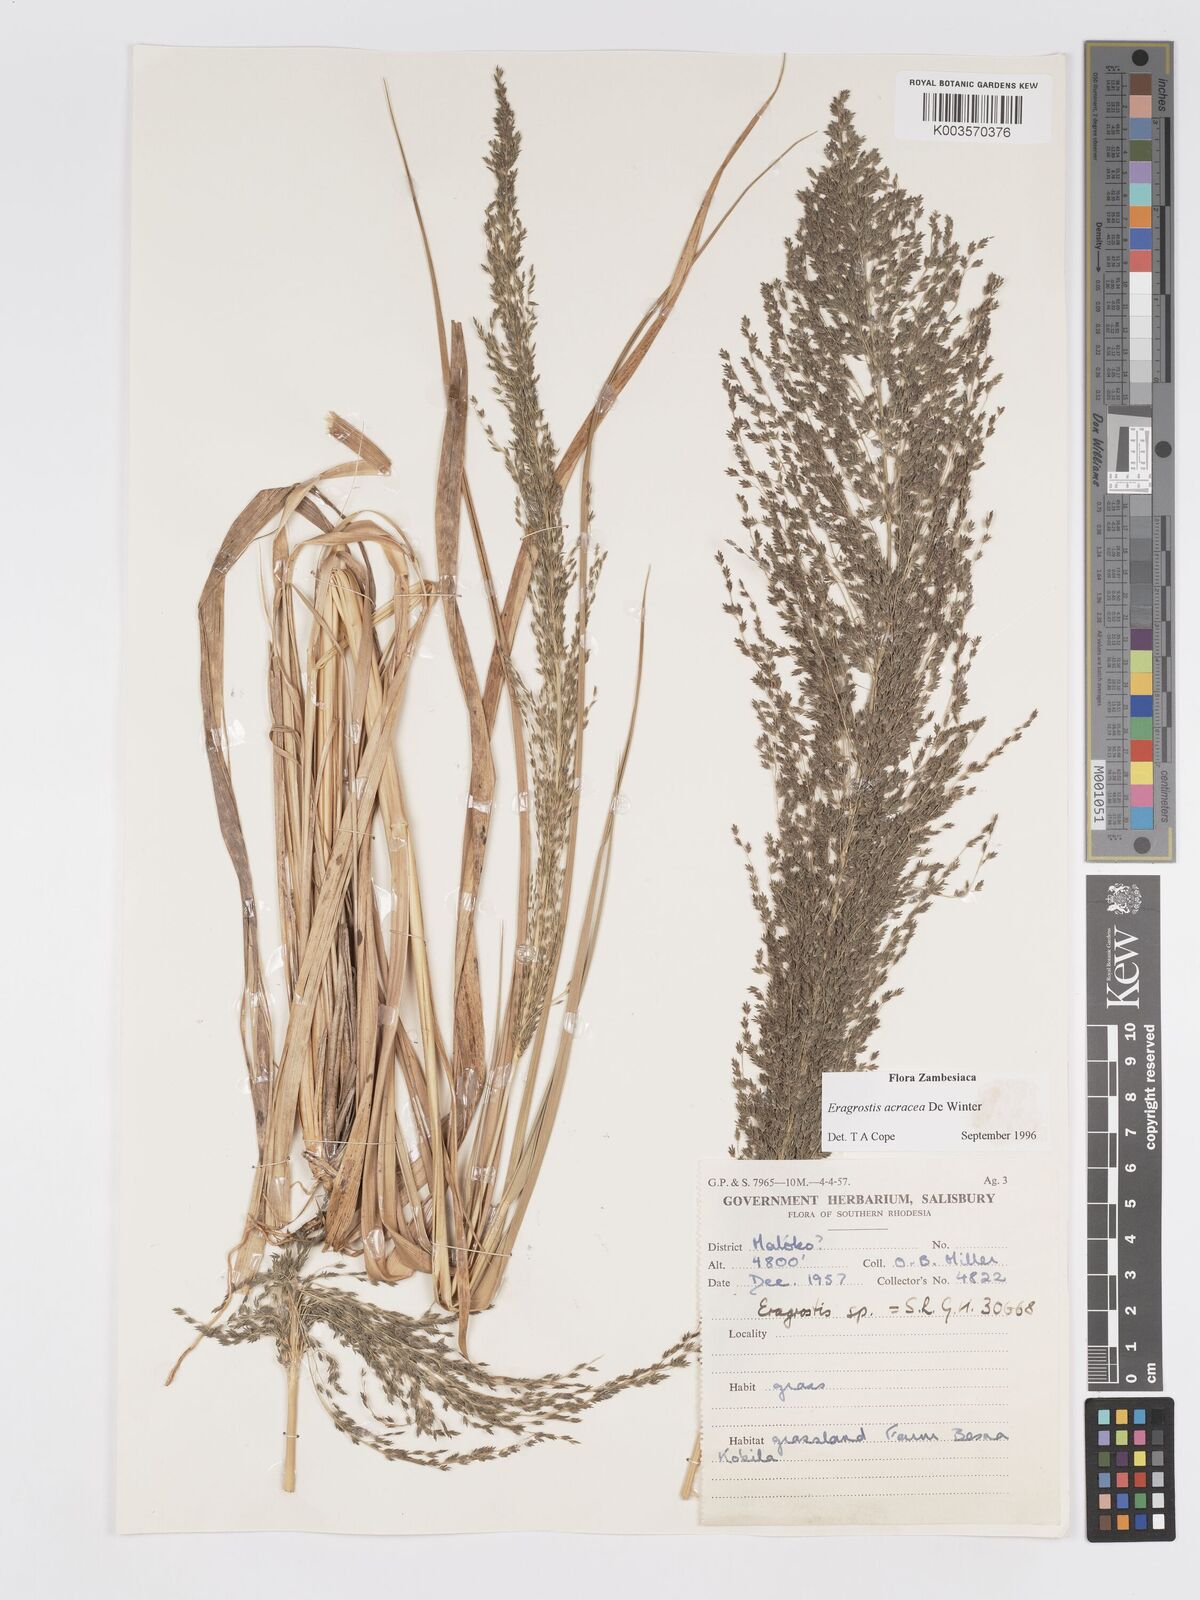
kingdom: Plantae
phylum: Tracheophyta
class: Liliopsida
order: Poales
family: Poaceae
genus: Eragrostis
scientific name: Eragrostis acraea
